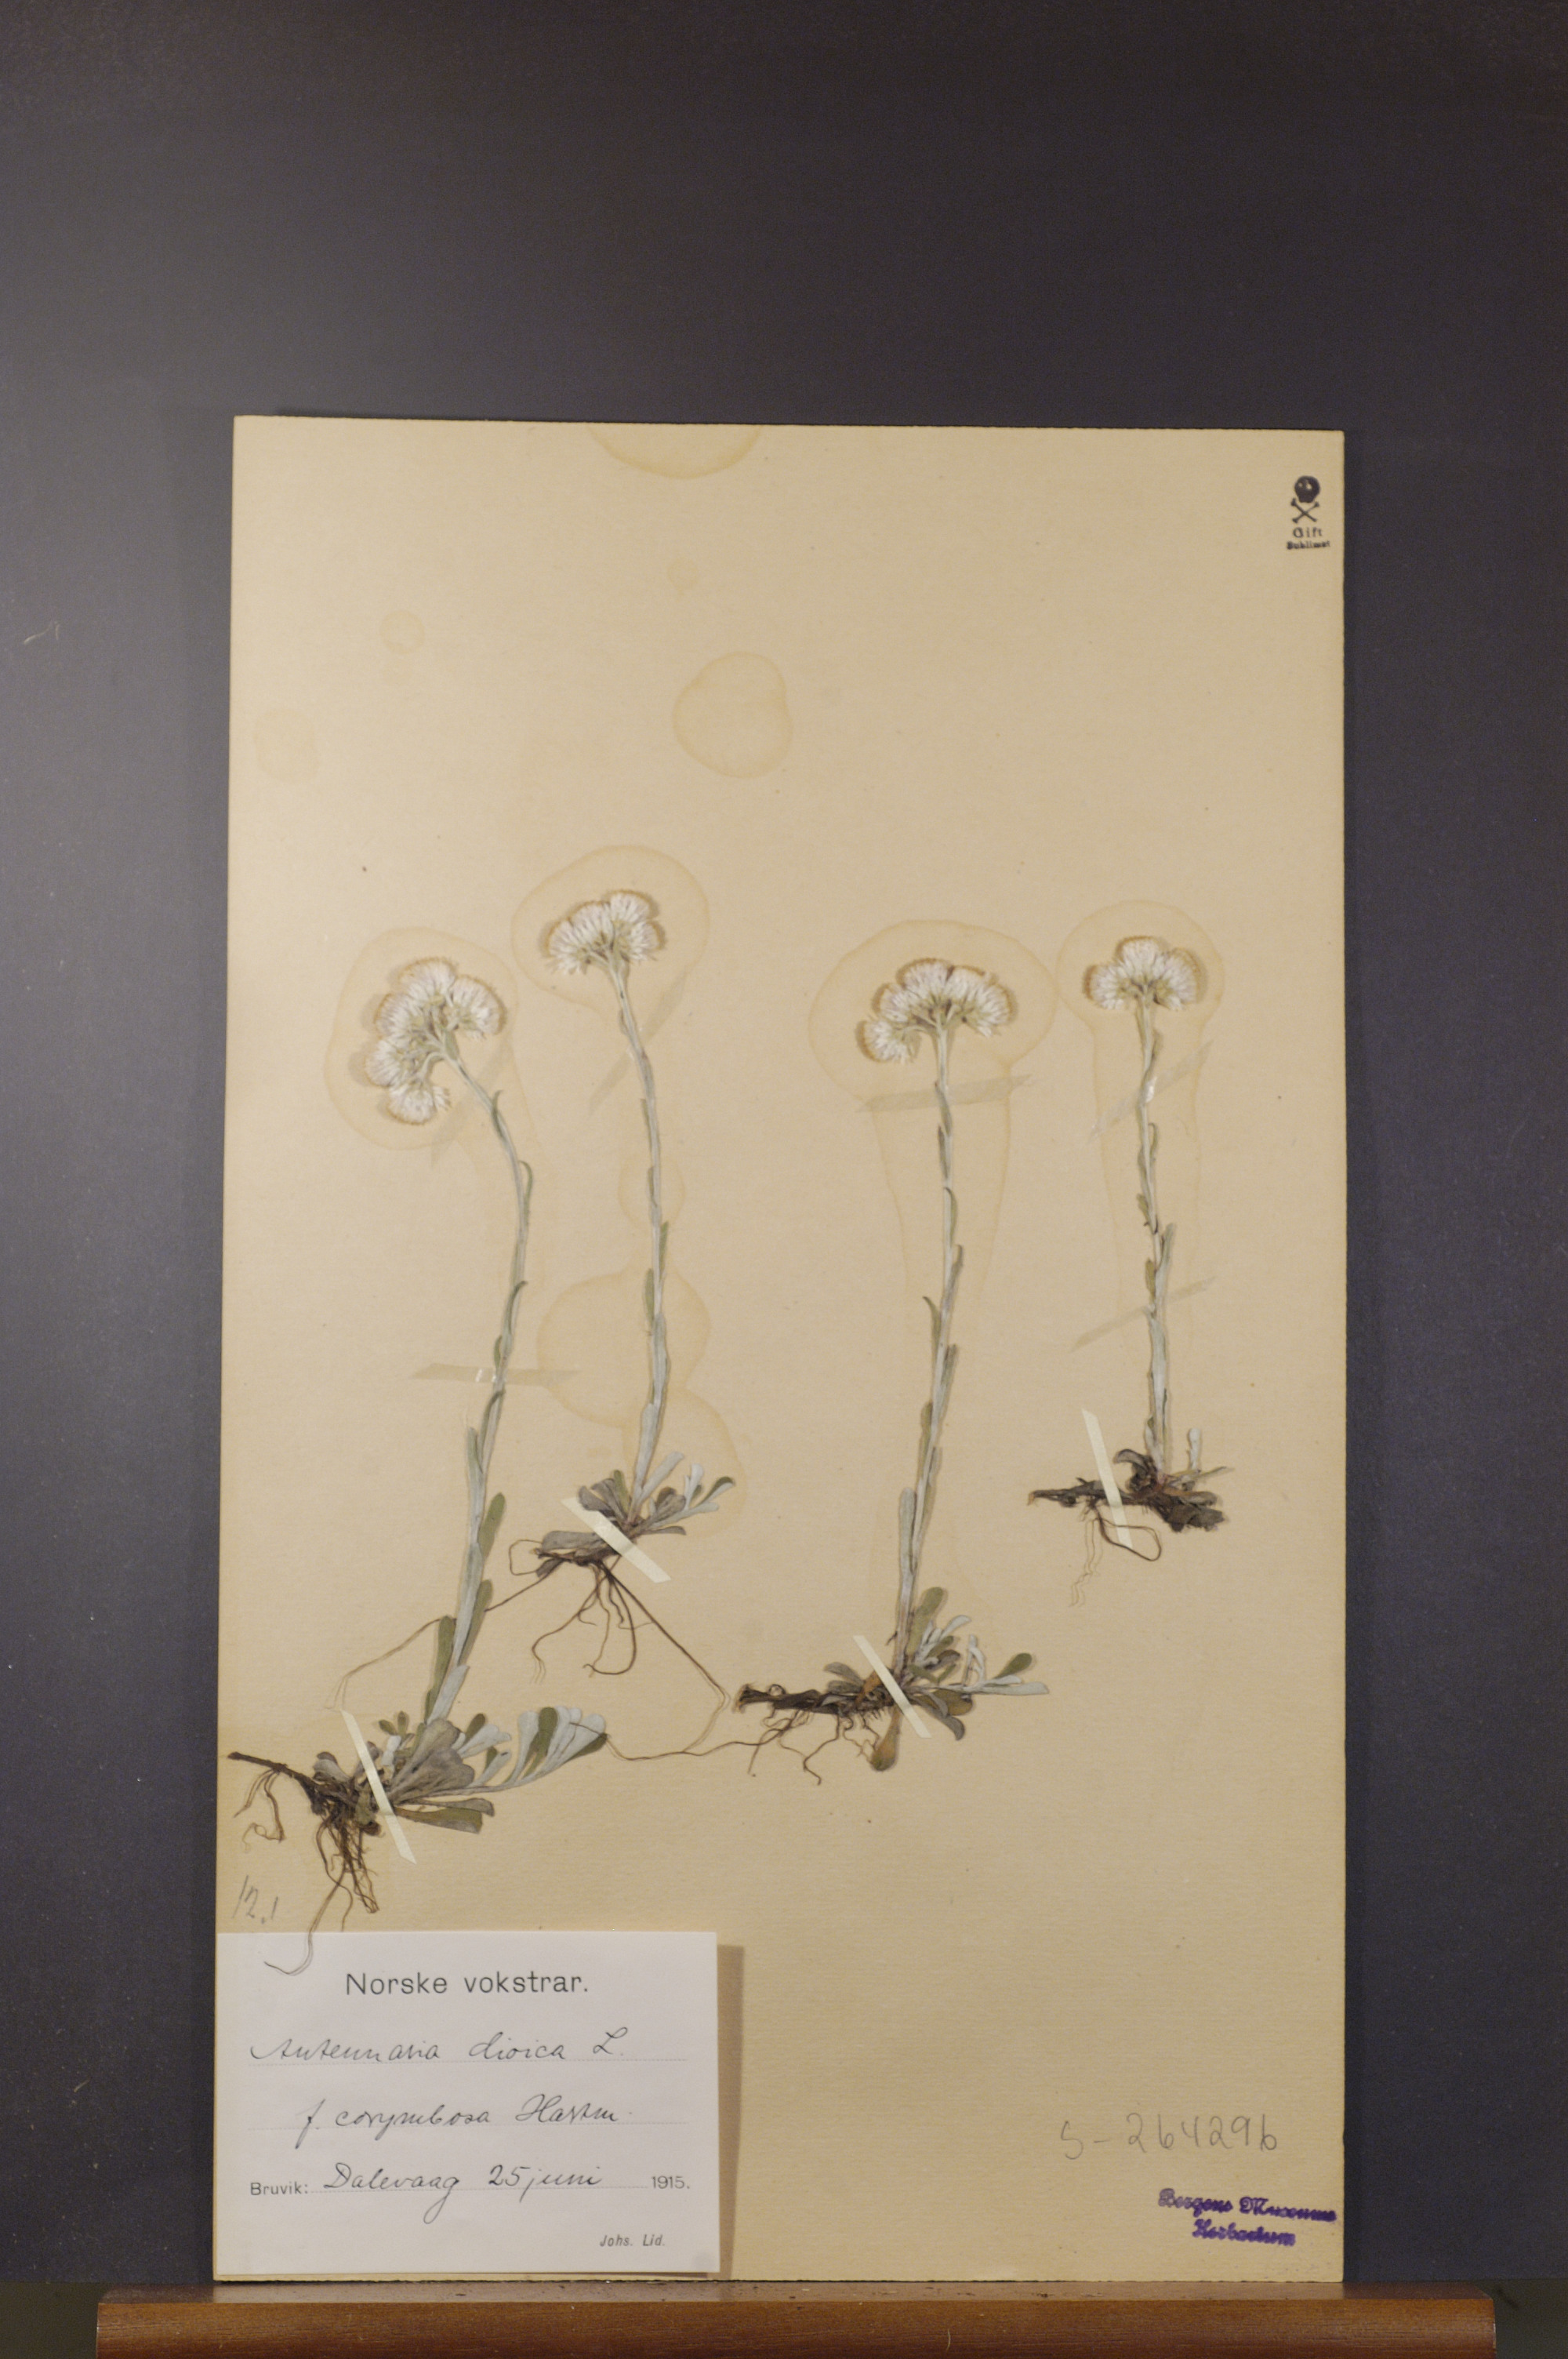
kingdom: Plantae
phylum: Tracheophyta
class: Magnoliopsida
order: Asterales
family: Asteraceae
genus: Antennaria
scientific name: Antennaria dioica
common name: Mountain everlasting
